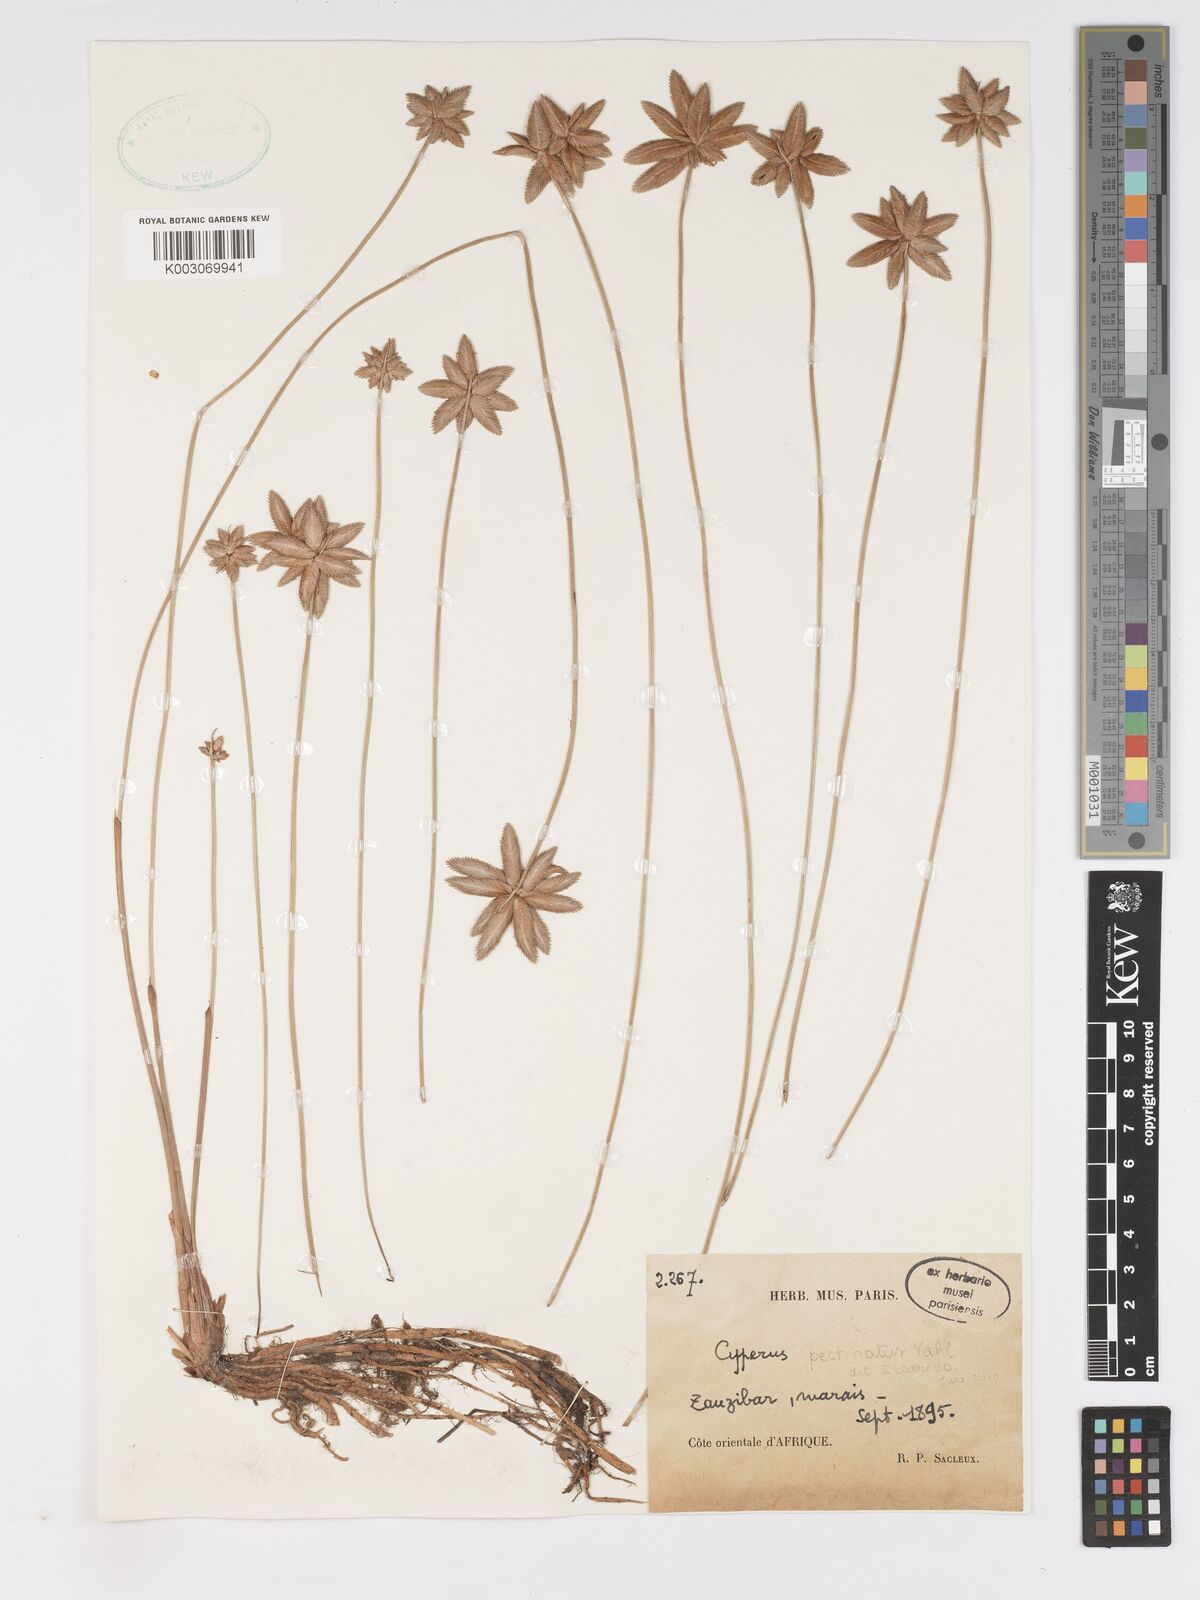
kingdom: Plantae
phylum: Tracheophyta
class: Liliopsida
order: Poales
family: Cyperaceae
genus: Cyperus
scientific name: Cyperus pectinatus
